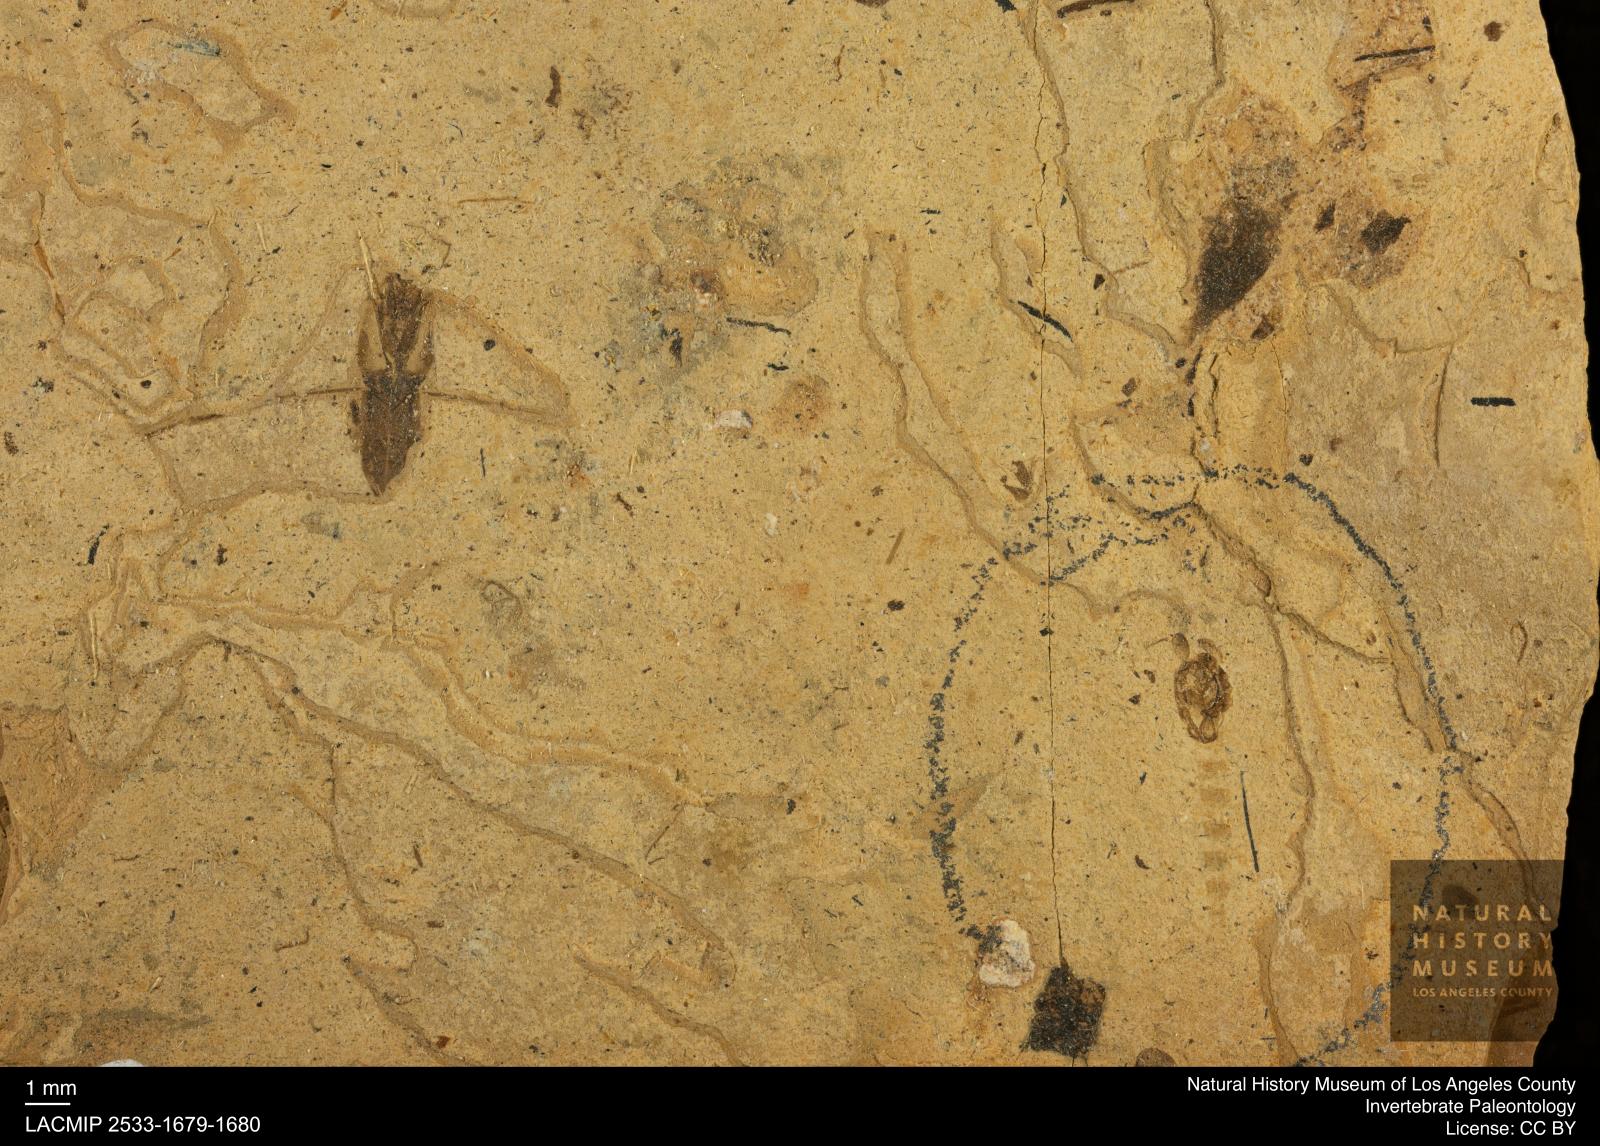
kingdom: Animalia
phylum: Arthropoda
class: Insecta
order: Diptera
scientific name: Diptera
